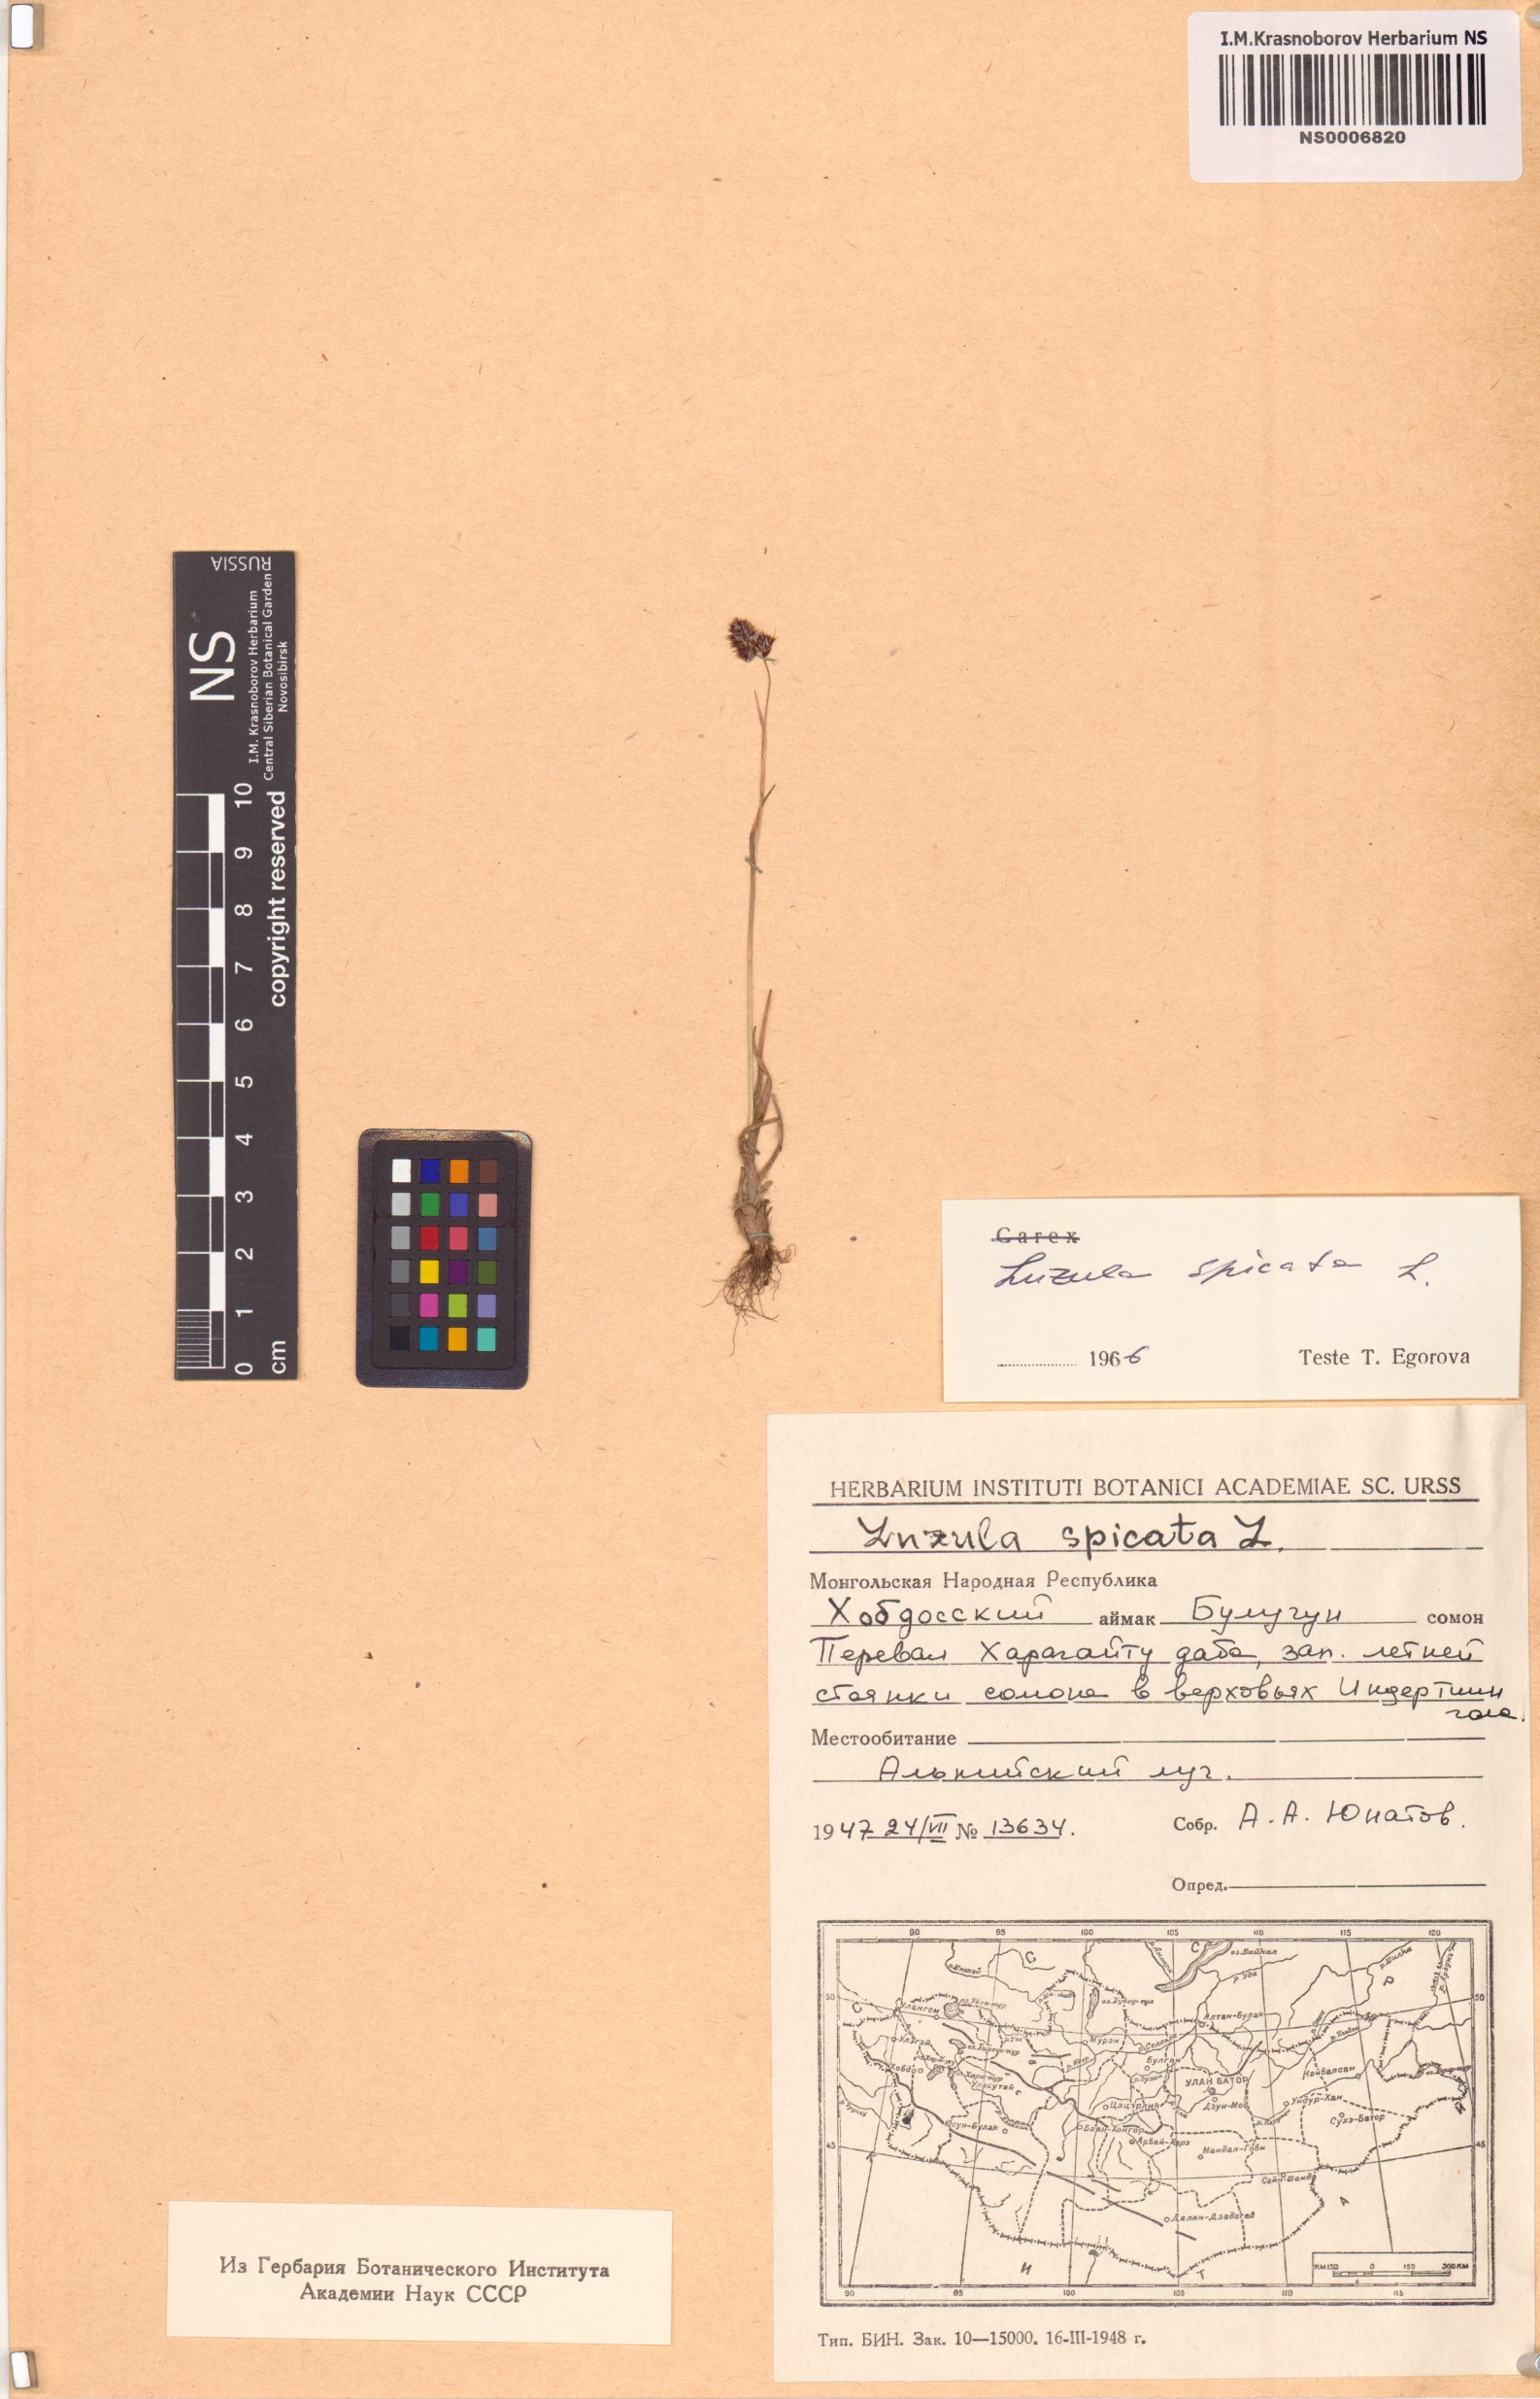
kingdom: Plantae
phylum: Tracheophyta
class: Liliopsida
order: Poales
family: Juncaceae
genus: Luzula
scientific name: Luzula spicata
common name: Spiked wood-rush
